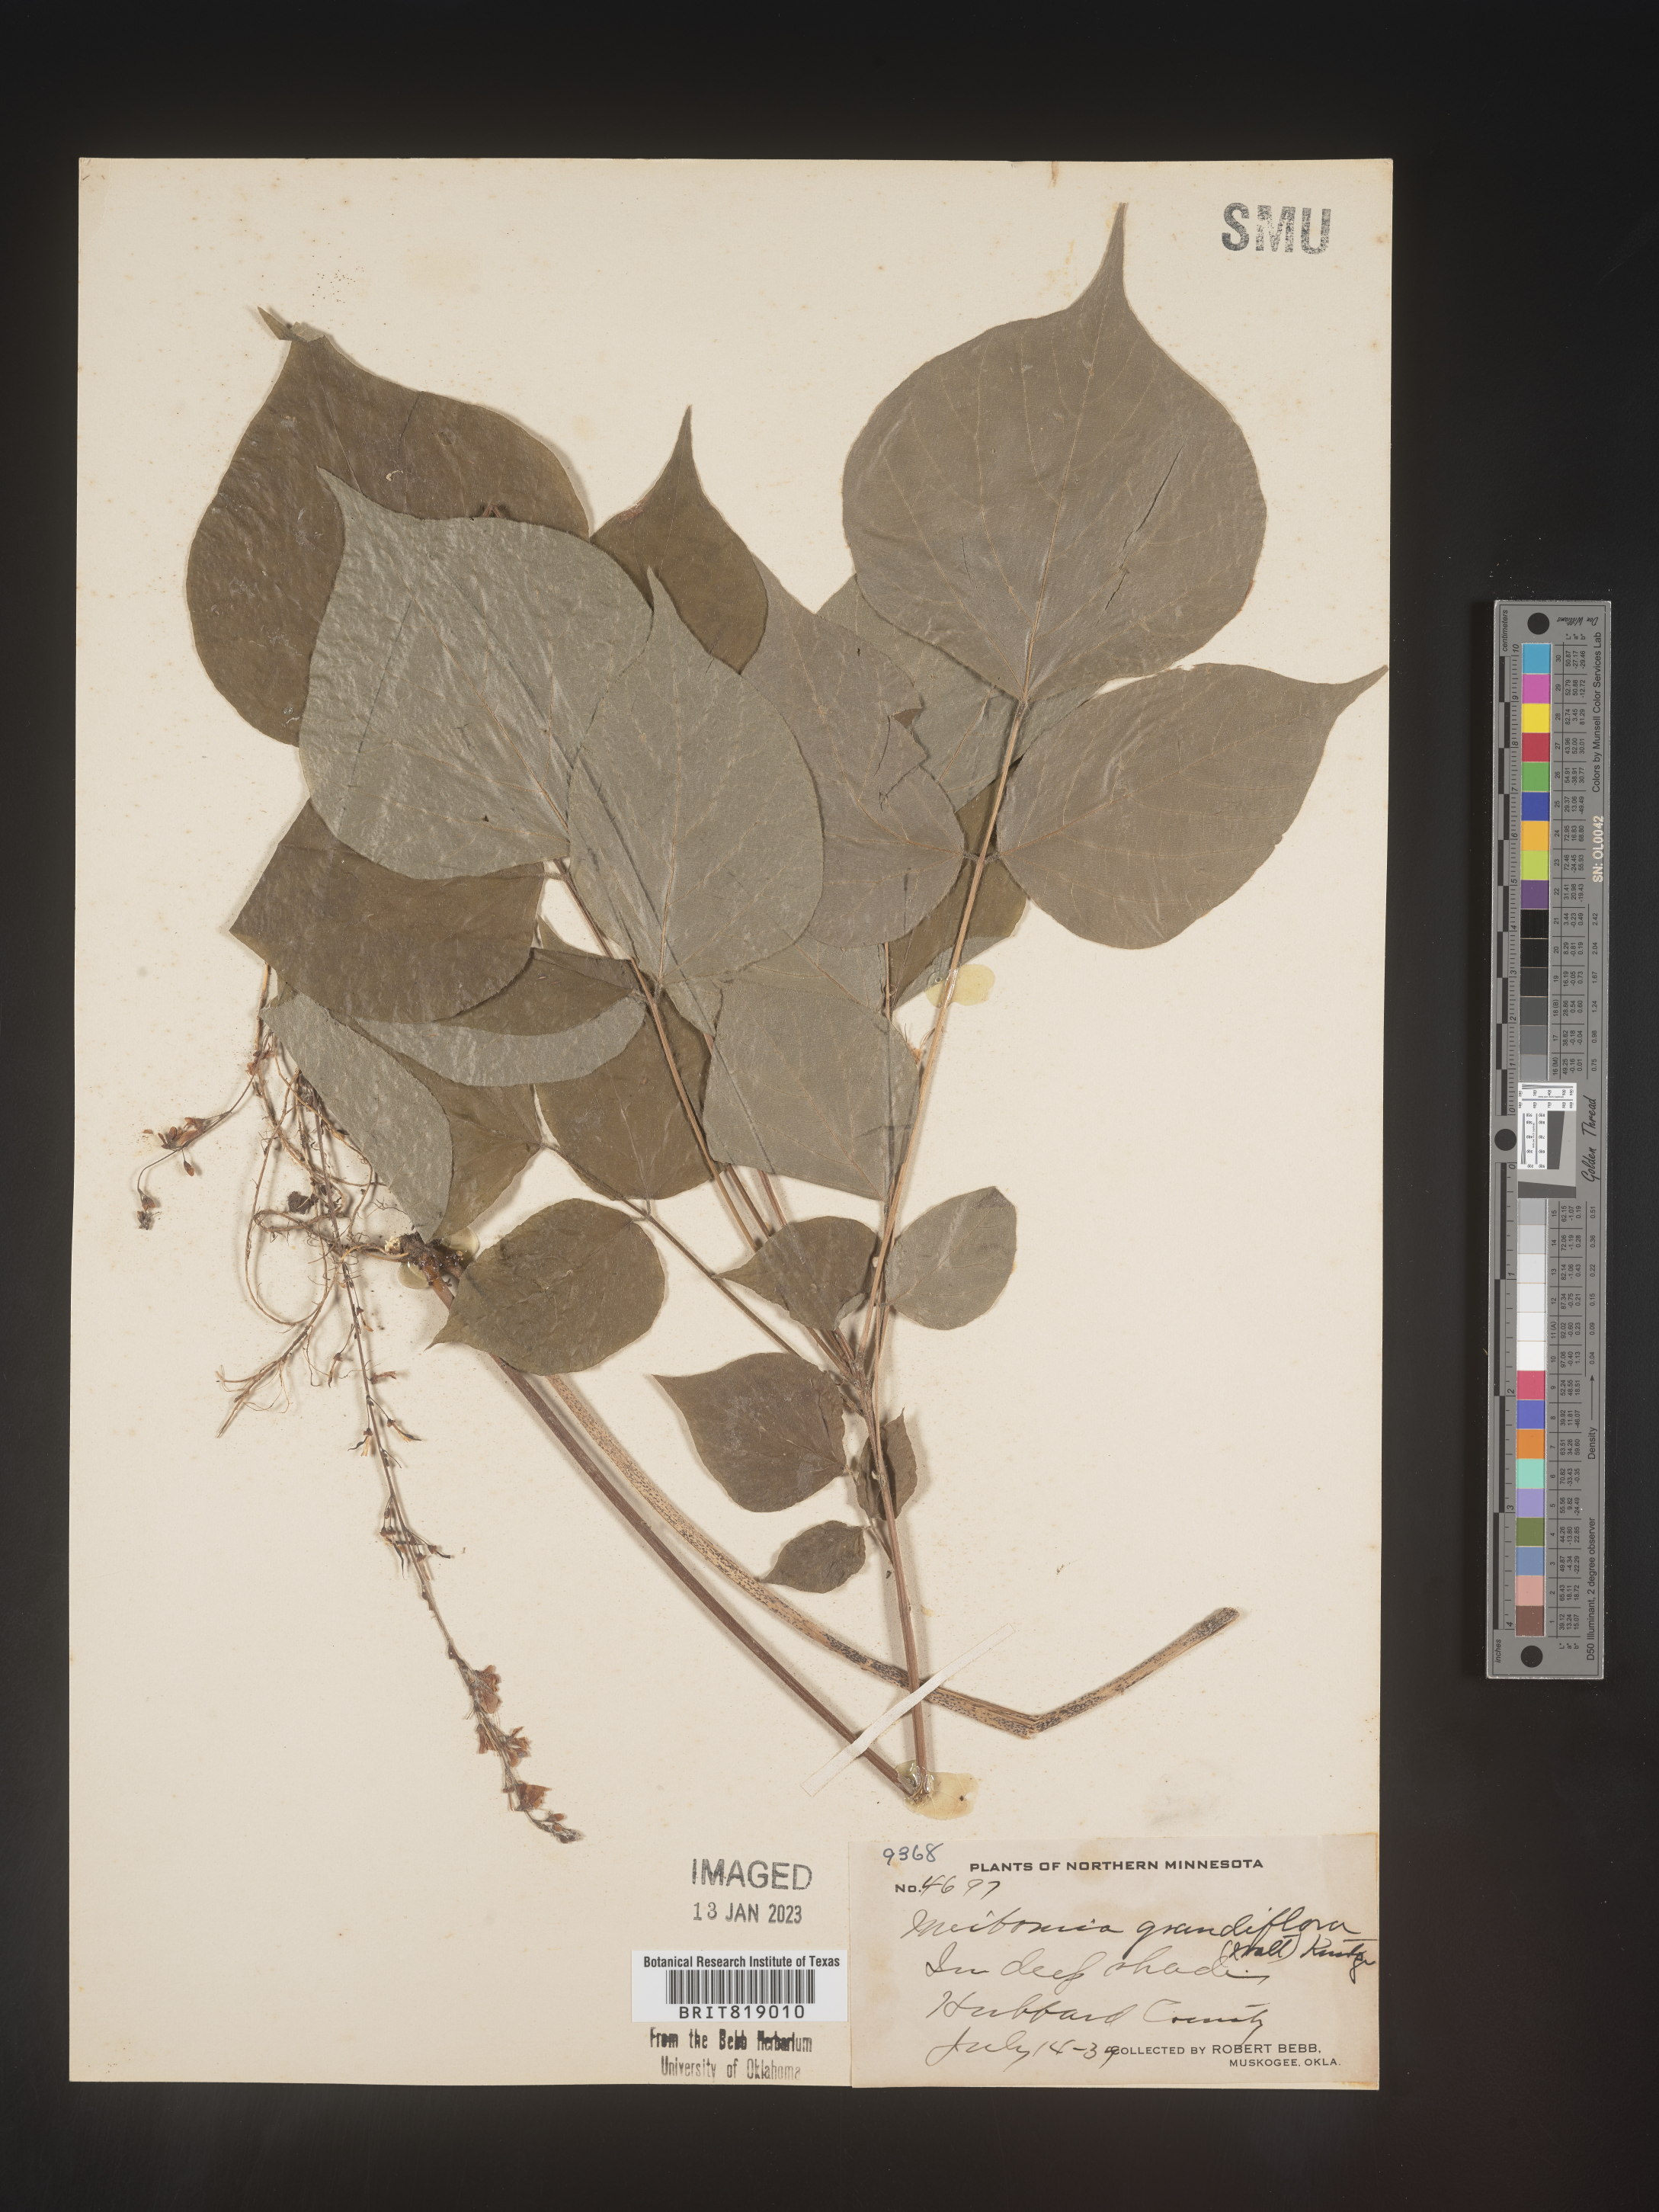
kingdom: Plantae
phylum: Tracheophyta
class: Magnoliopsida
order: Fabales
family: Fabaceae
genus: Hylodesmum
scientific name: Hylodesmum glutinosum
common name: Clustered-leaved tick-trefoil
